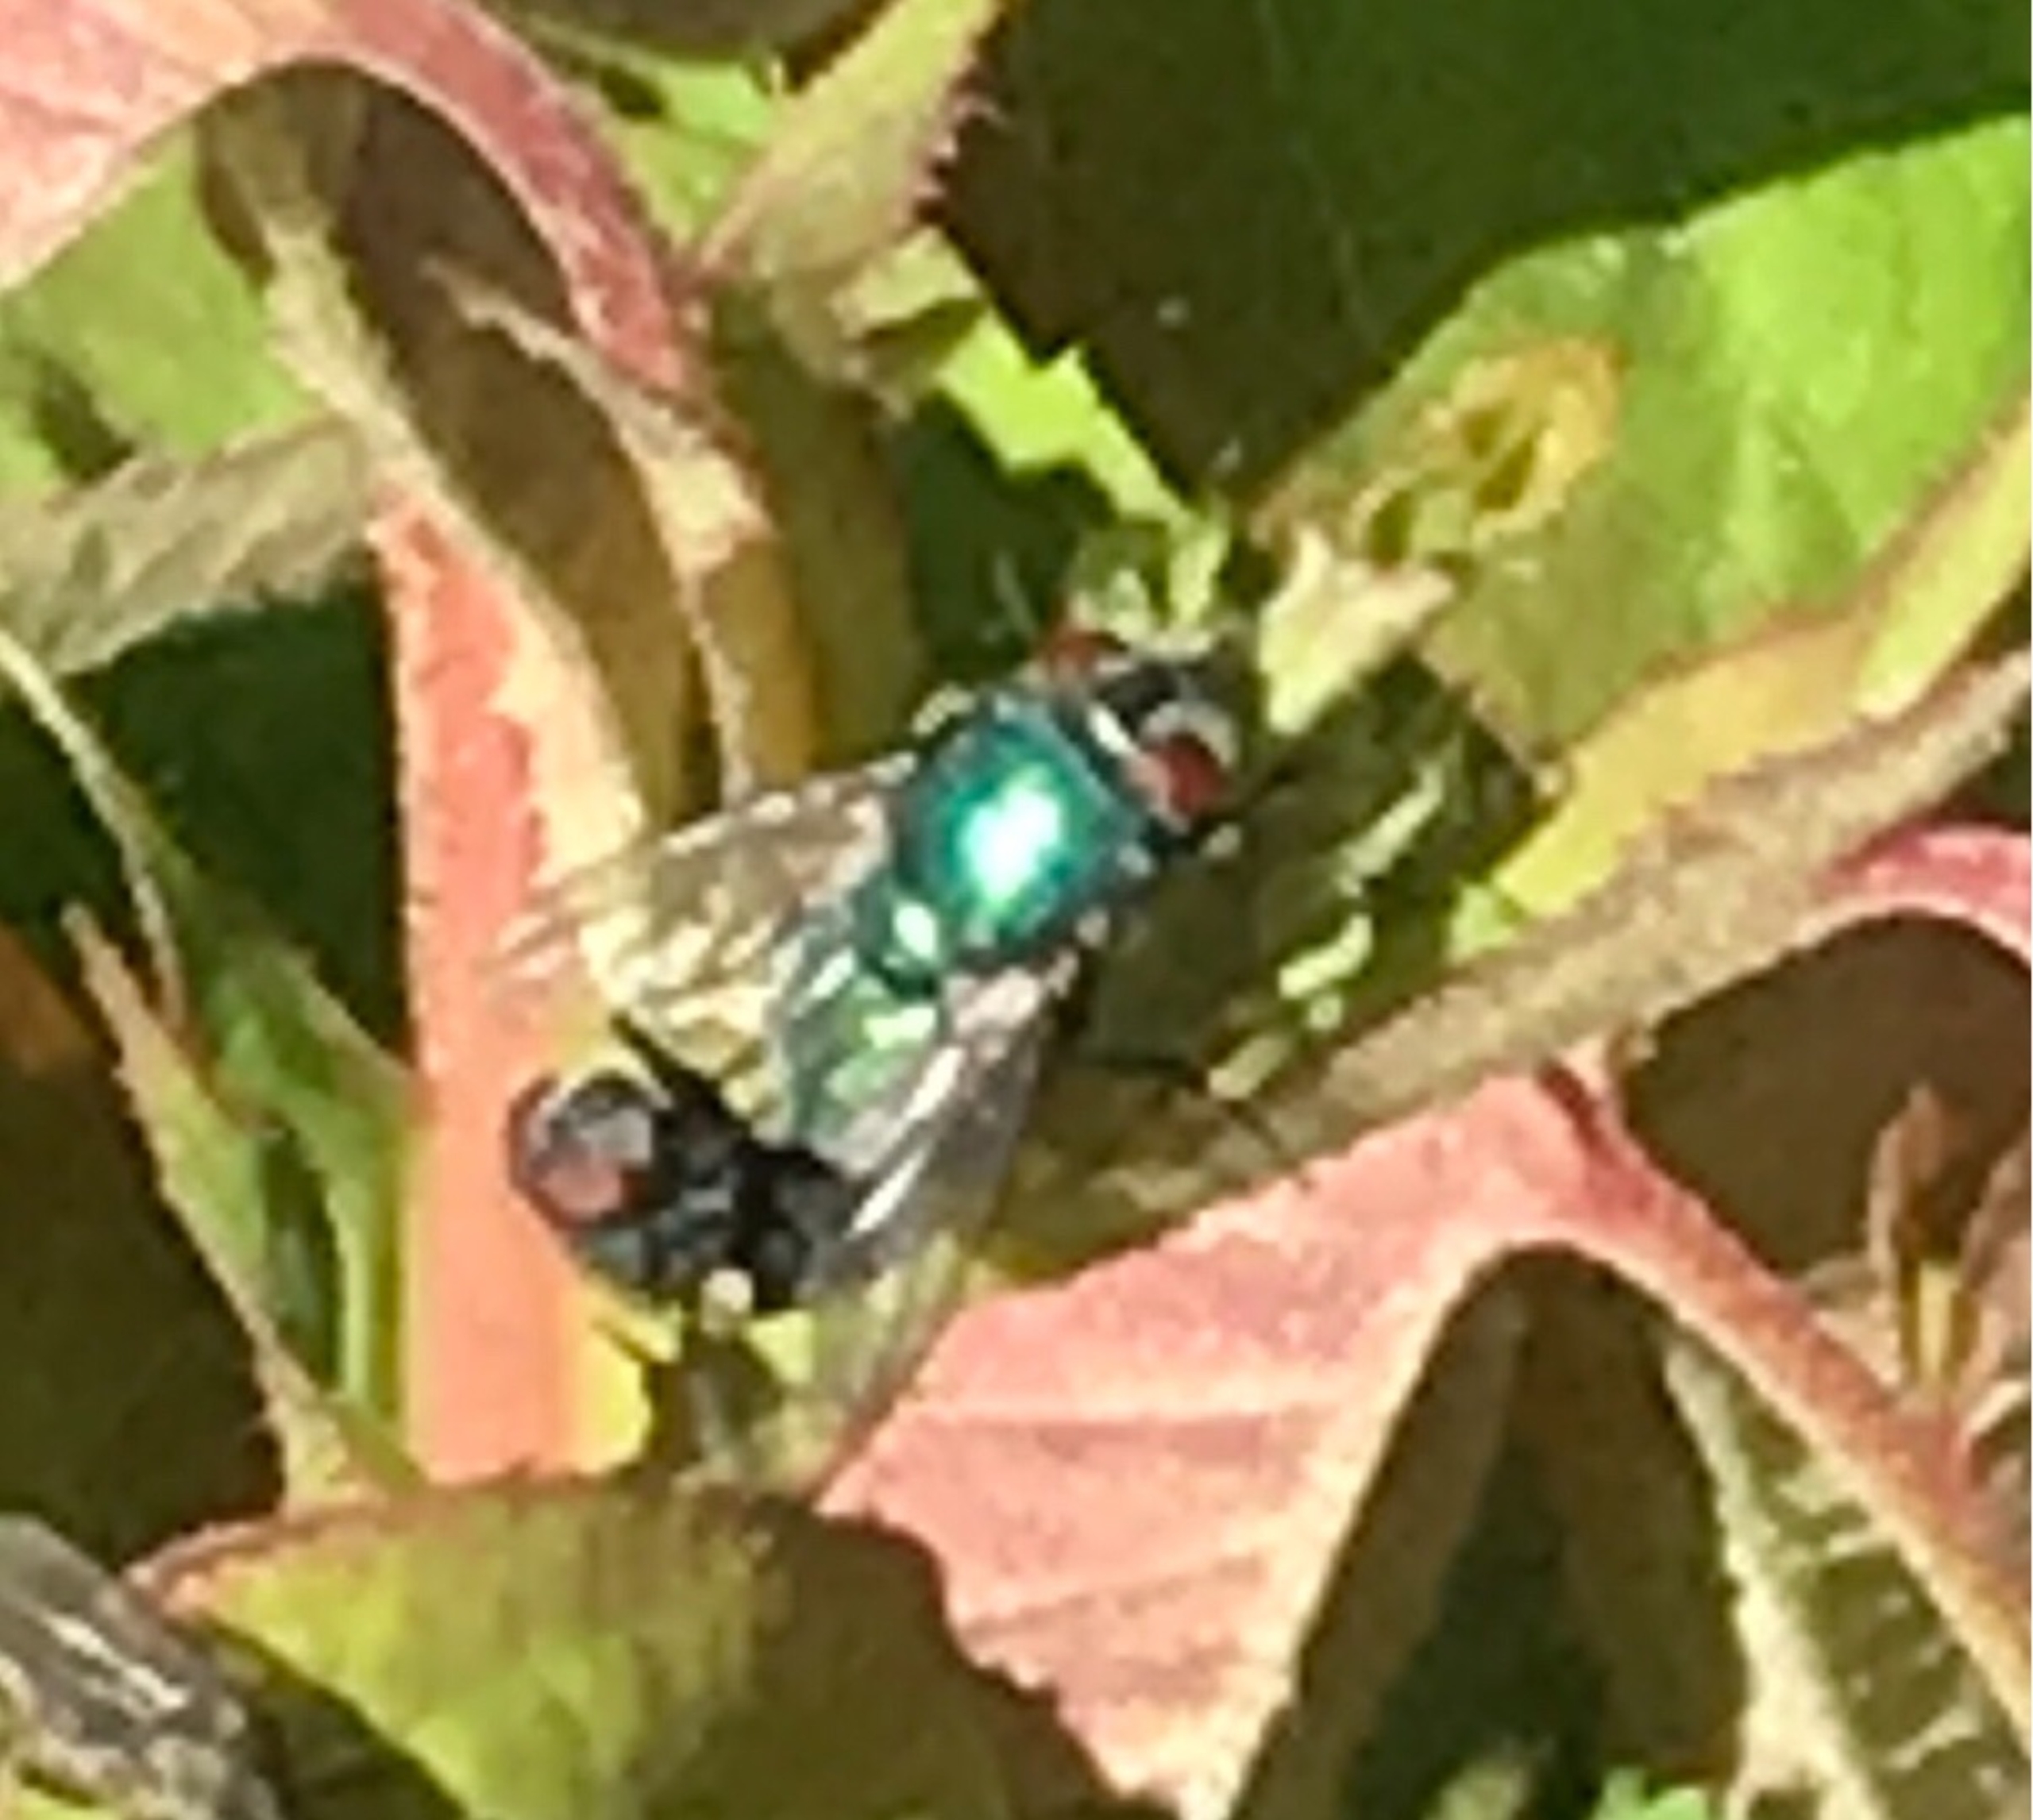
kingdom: Animalia
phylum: Arthropoda
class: Insecta
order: Diptera
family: Calliphoridae
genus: Lucilia
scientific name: Lucilia
